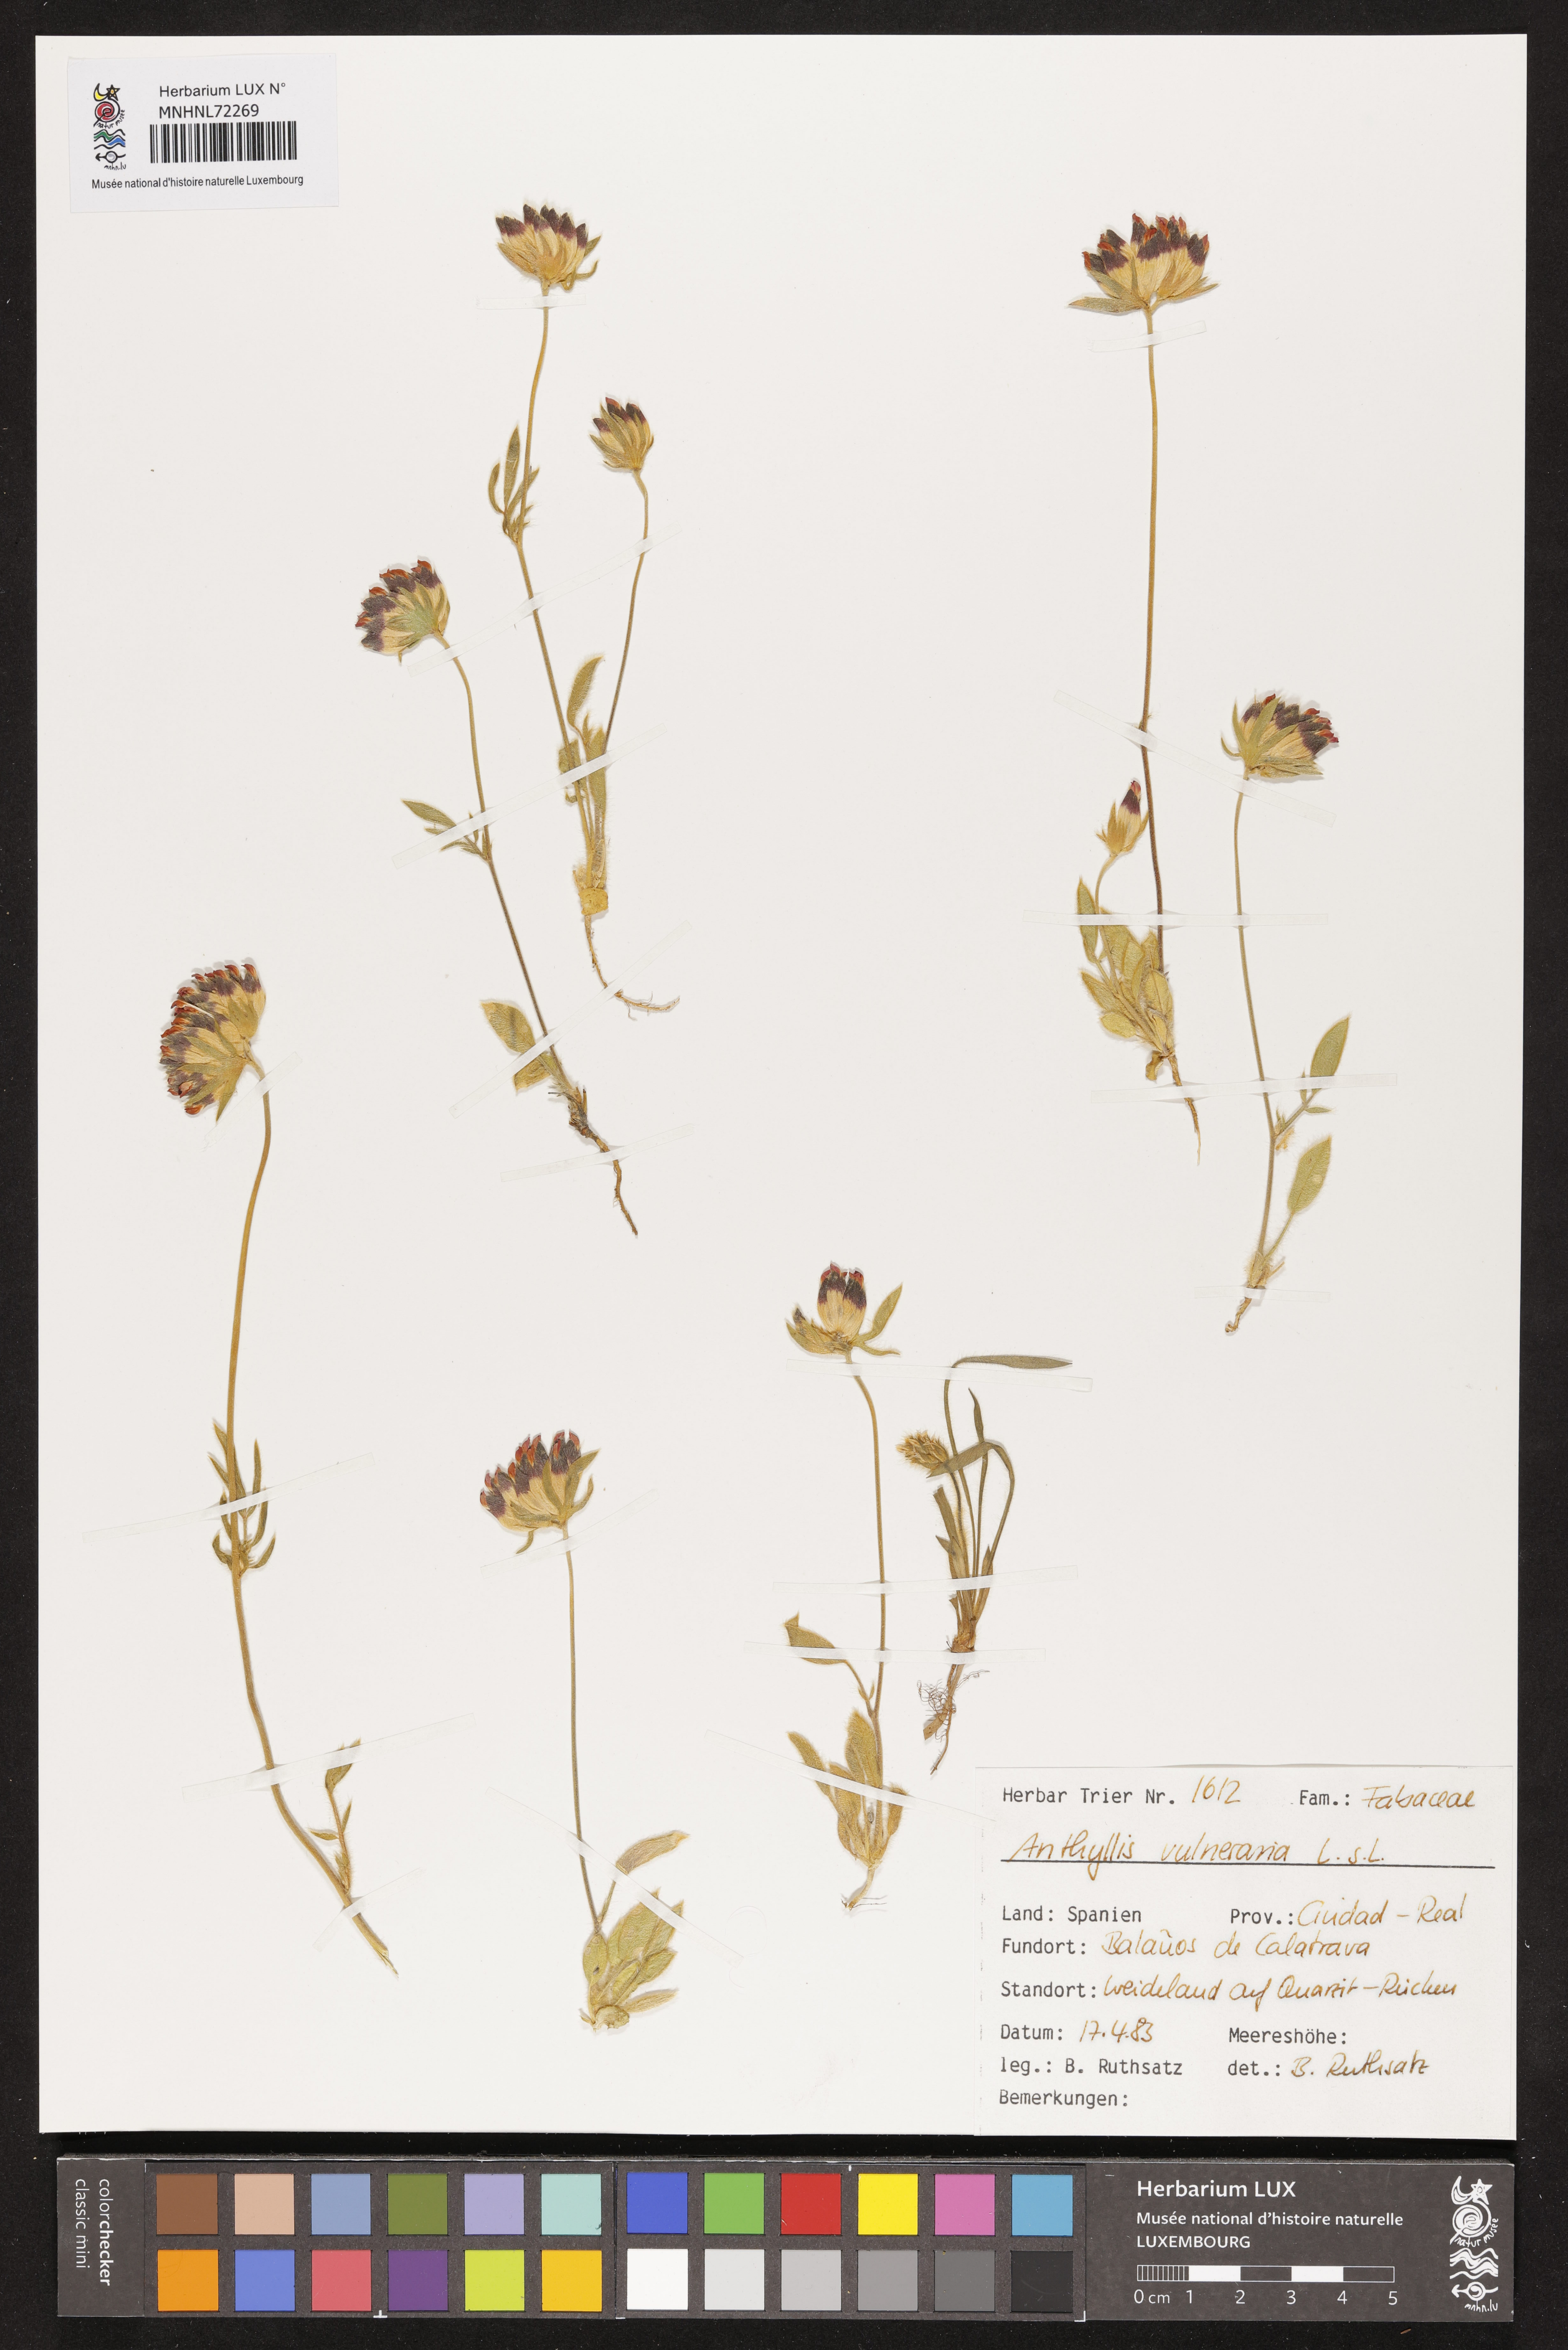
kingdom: Plantae
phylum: Tracheophyta
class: Magnoliopsida
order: Fabales
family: Fabaceae
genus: Anthyllis
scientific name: Anthyllis vulneraria
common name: Kidney vetch
